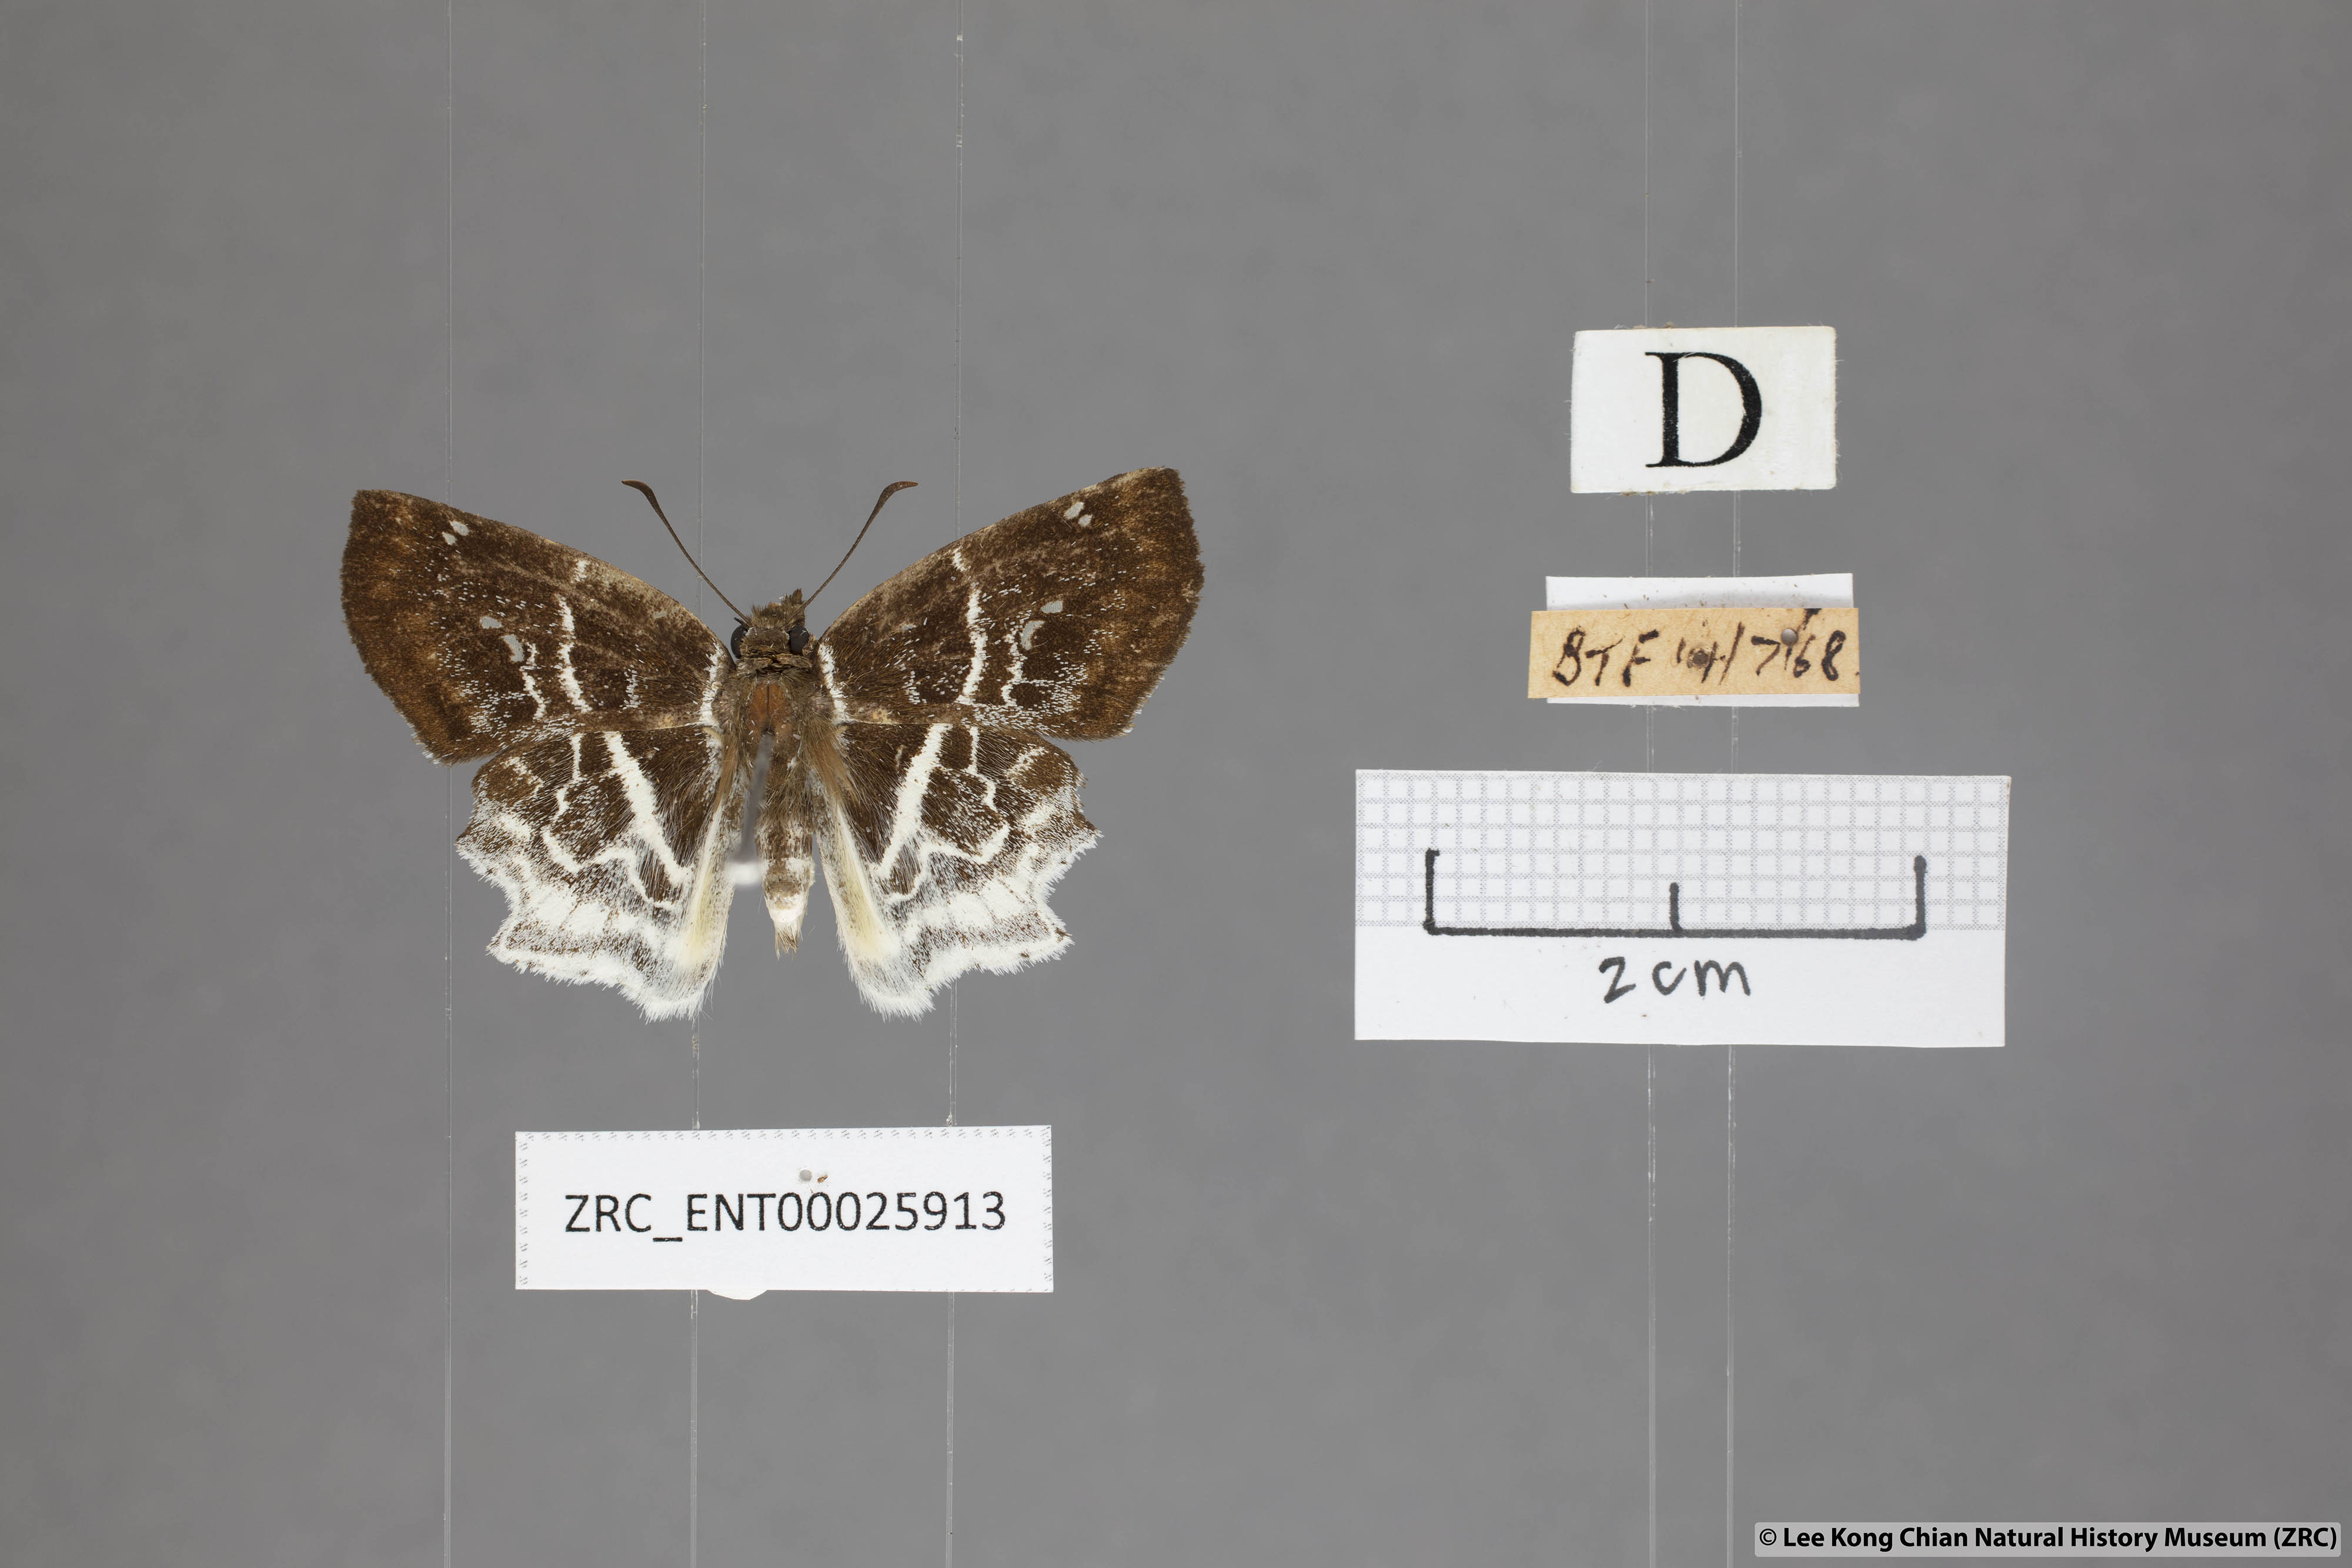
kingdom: Animalia
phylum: Arthropoda
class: Insecta
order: Lepidoptera
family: Hesperiidae
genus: Odontoptilum
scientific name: Odontoptilum pygela
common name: Banded angle
